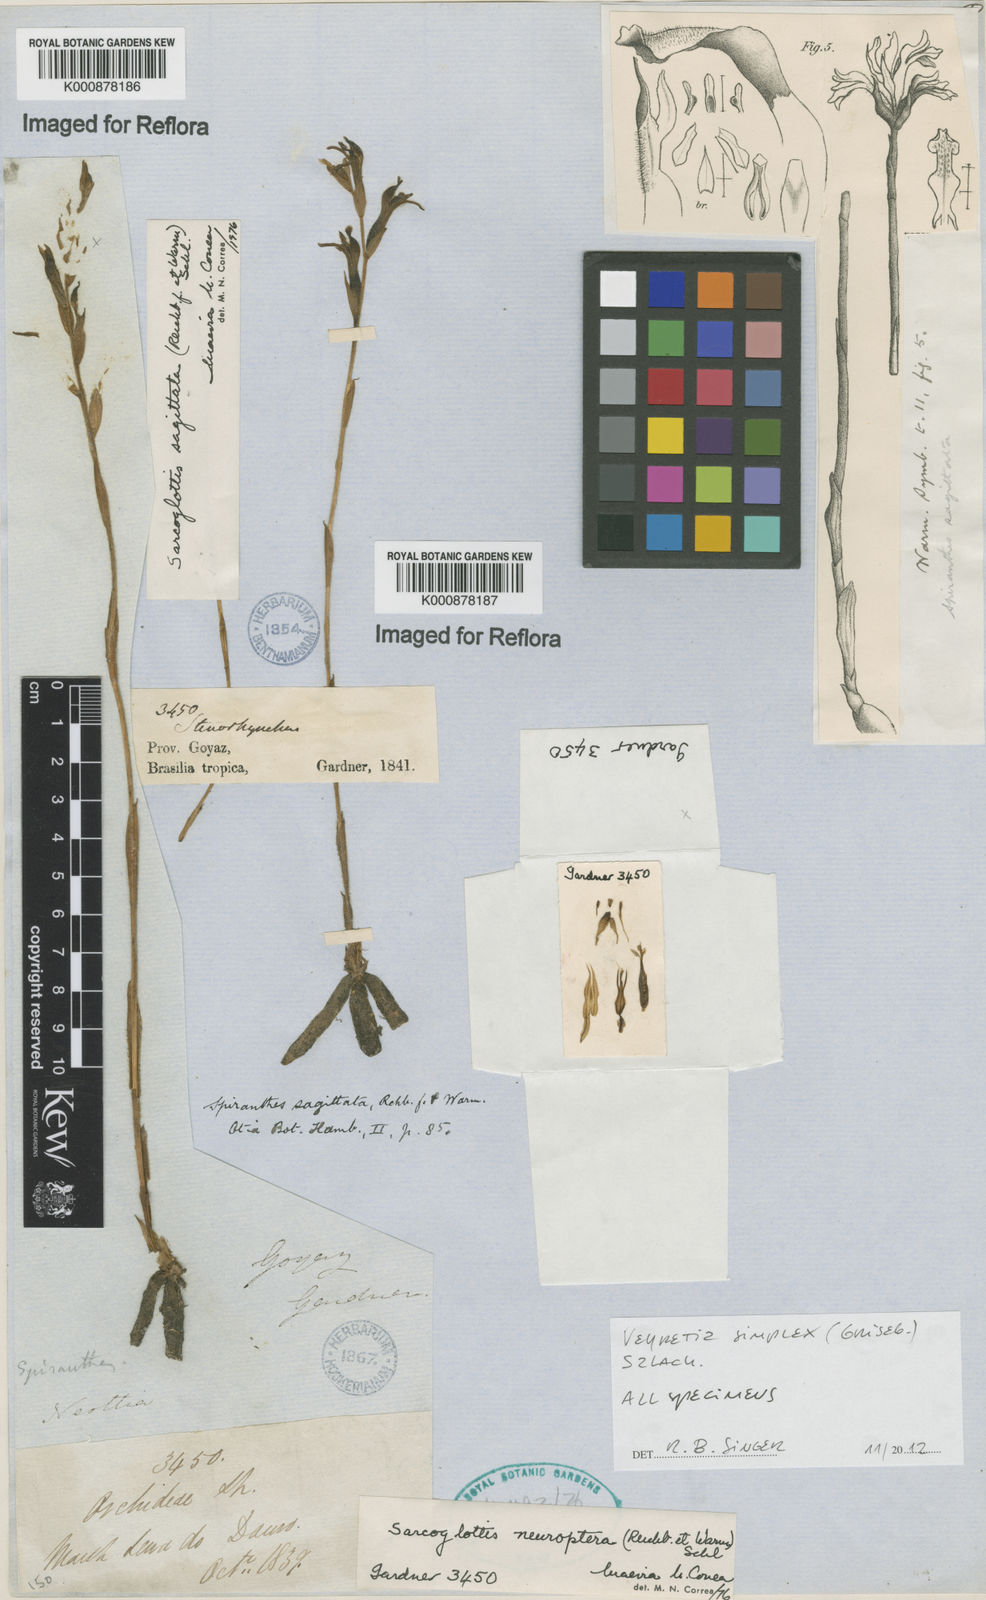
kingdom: Plantae
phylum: Tracheophyta
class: Liliopsida
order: Asparagales
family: Orchidaceae
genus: Veyretia
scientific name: Veyretia simplex
